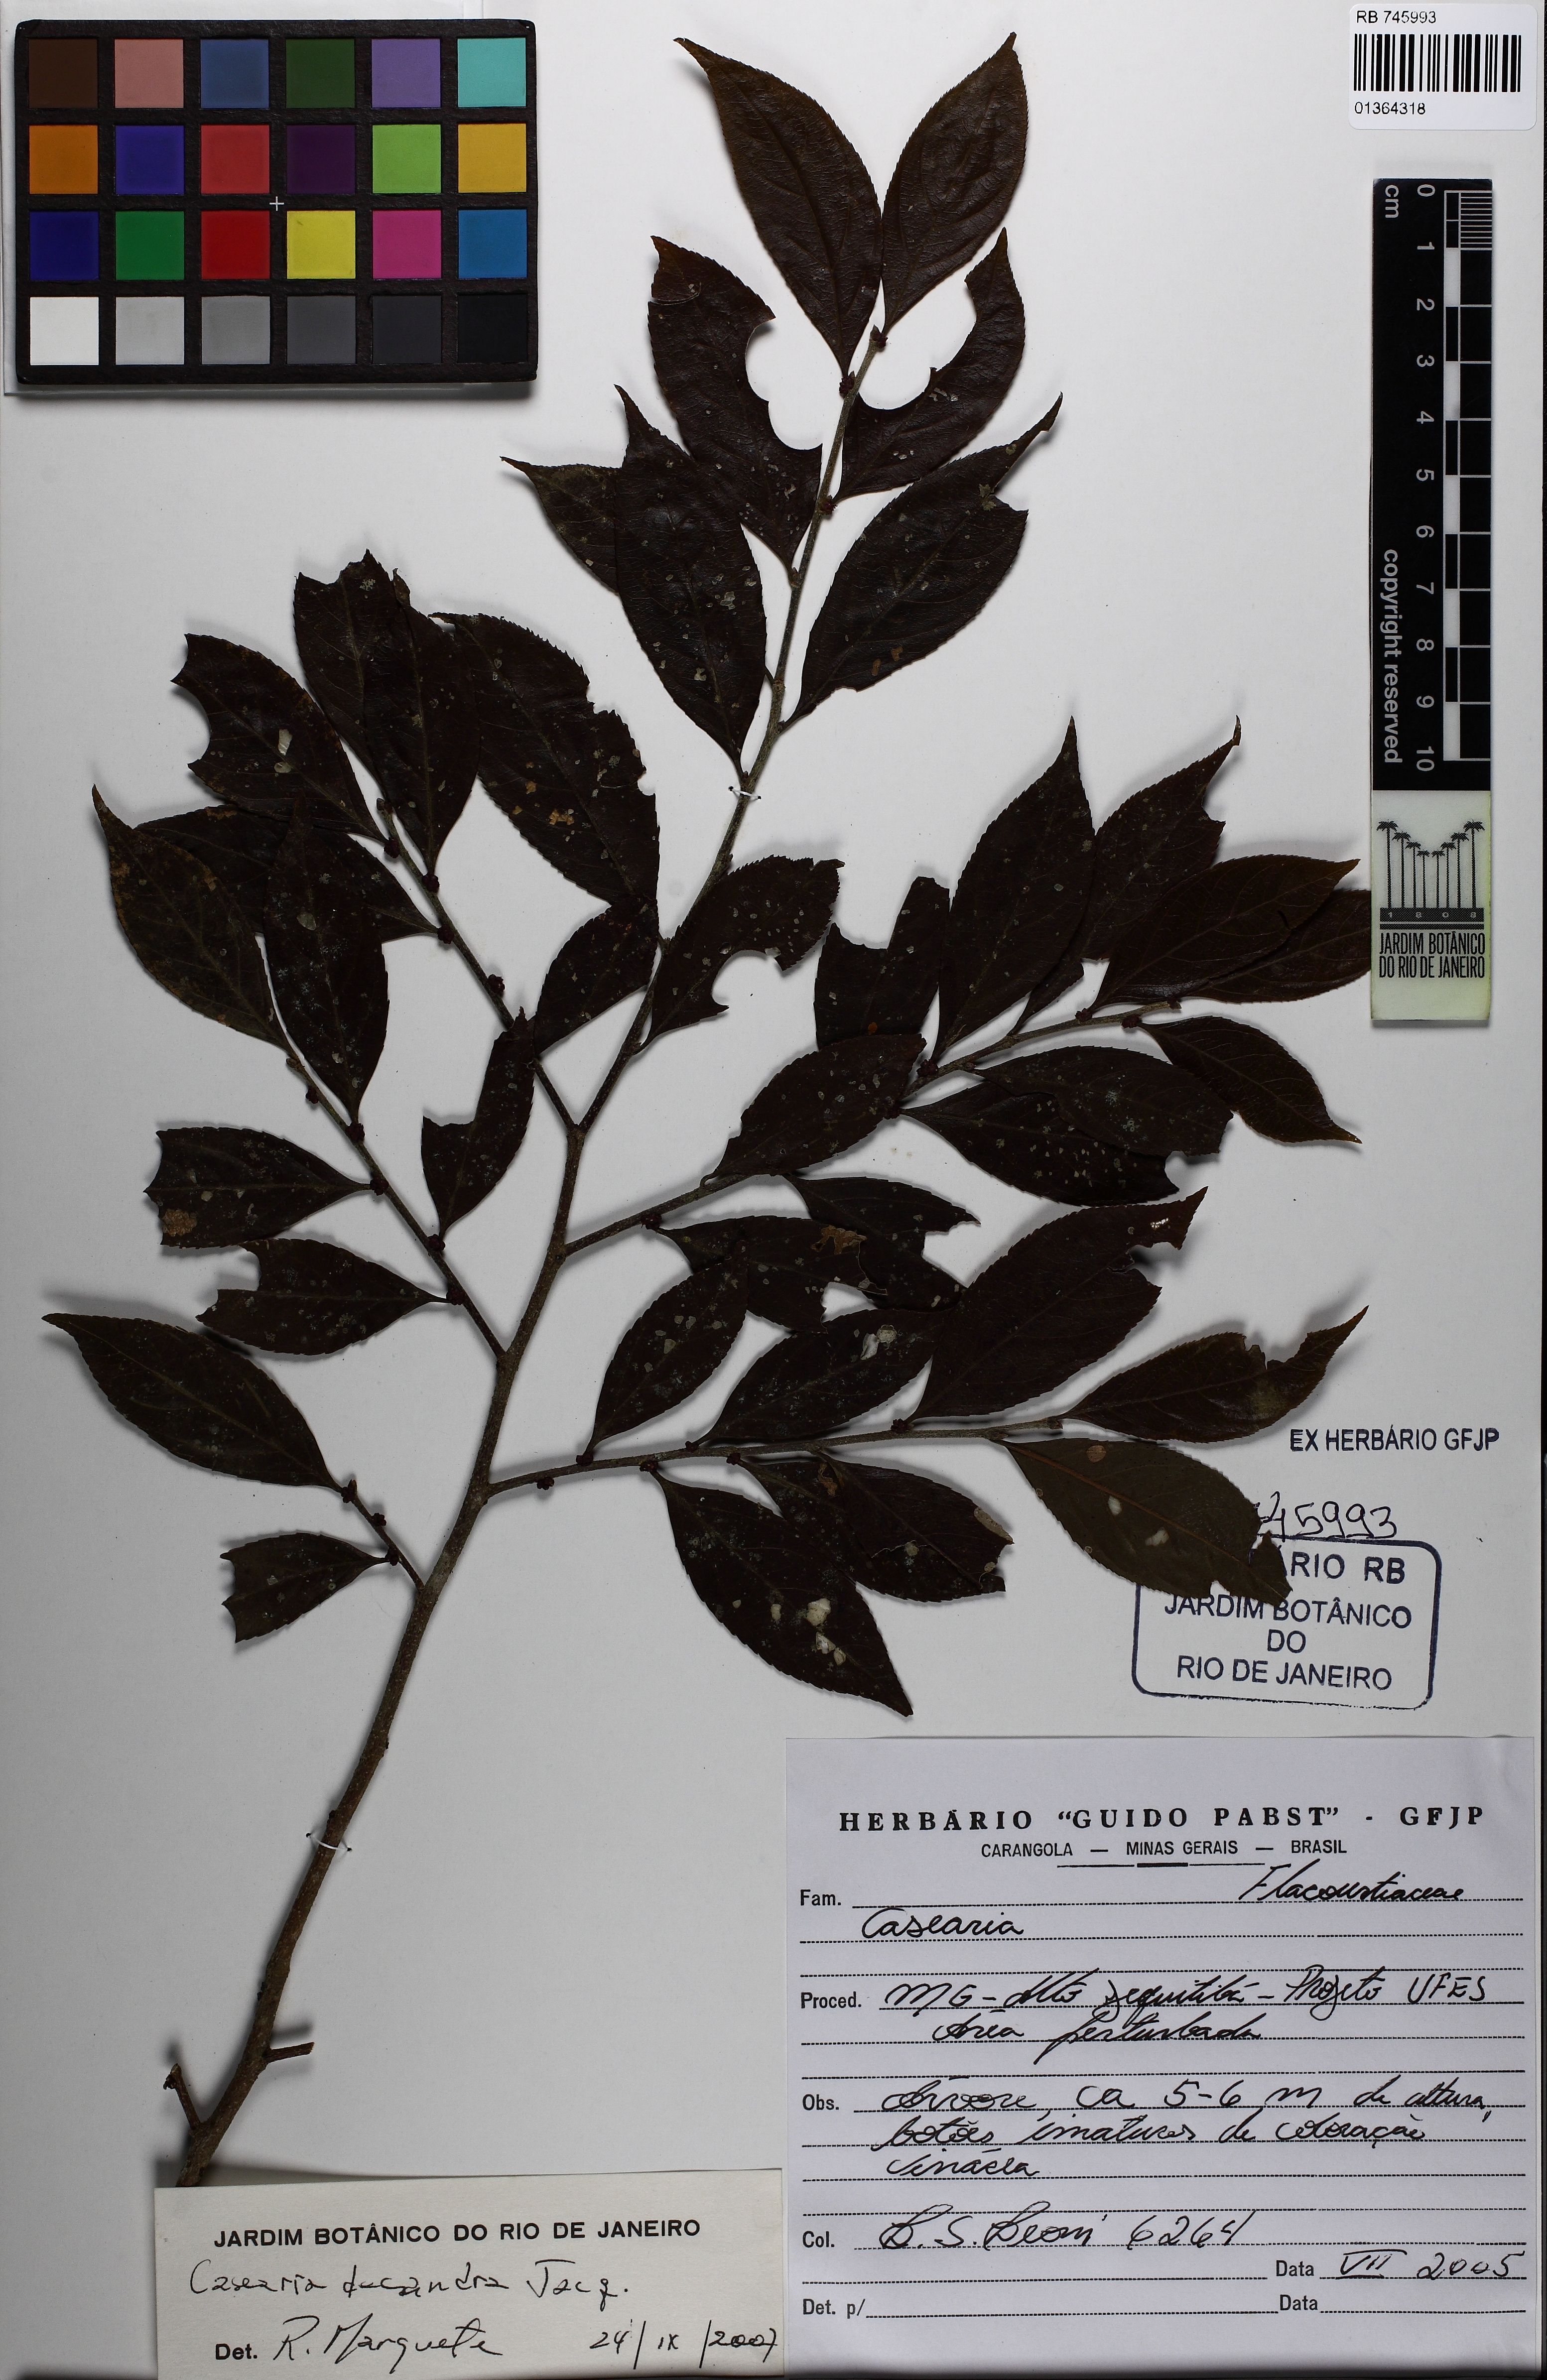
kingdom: Plantae
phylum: Tracheophyta
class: Magnoliopsida
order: Malpighiales
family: Salicaceae
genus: Casearia
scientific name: Casearia decandra
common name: Crack open
